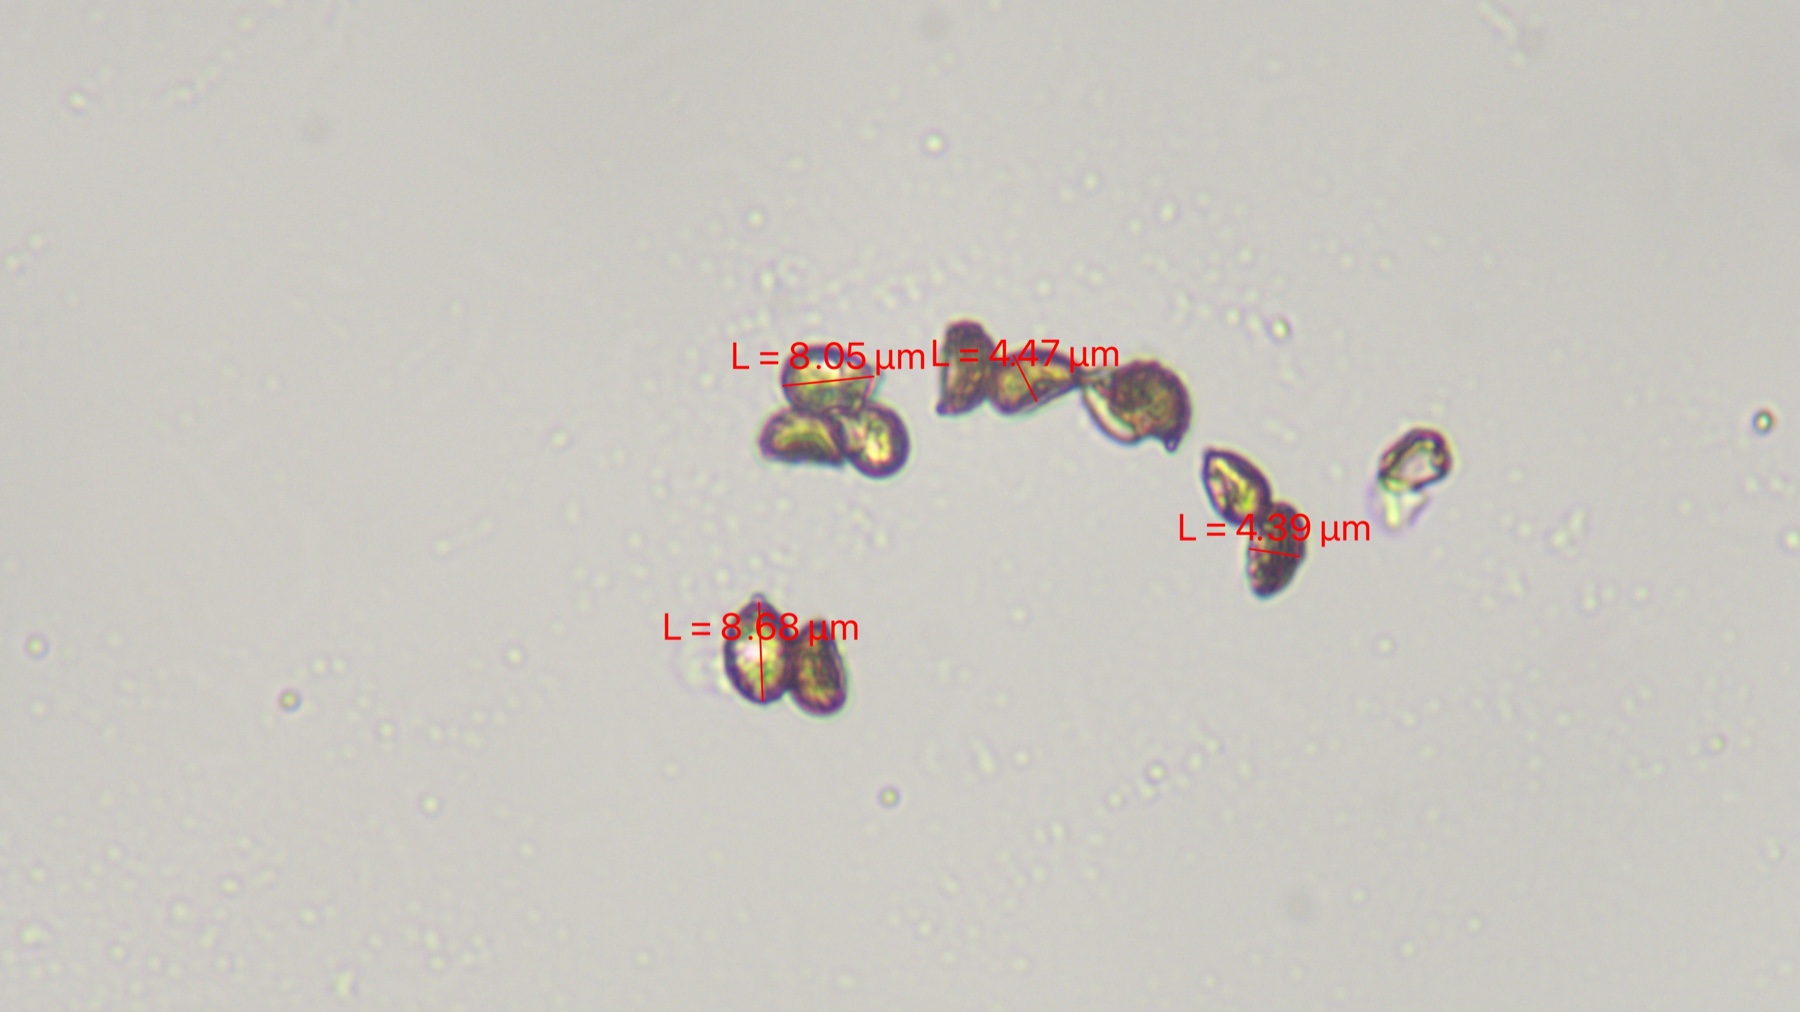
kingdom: Fungi
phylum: Basidiomycota
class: Agaricomycetes
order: Agaricales
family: Hymenogastraceae
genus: Hebeloma
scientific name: Hebeloma radicosum
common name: pælerods-tåreblad
